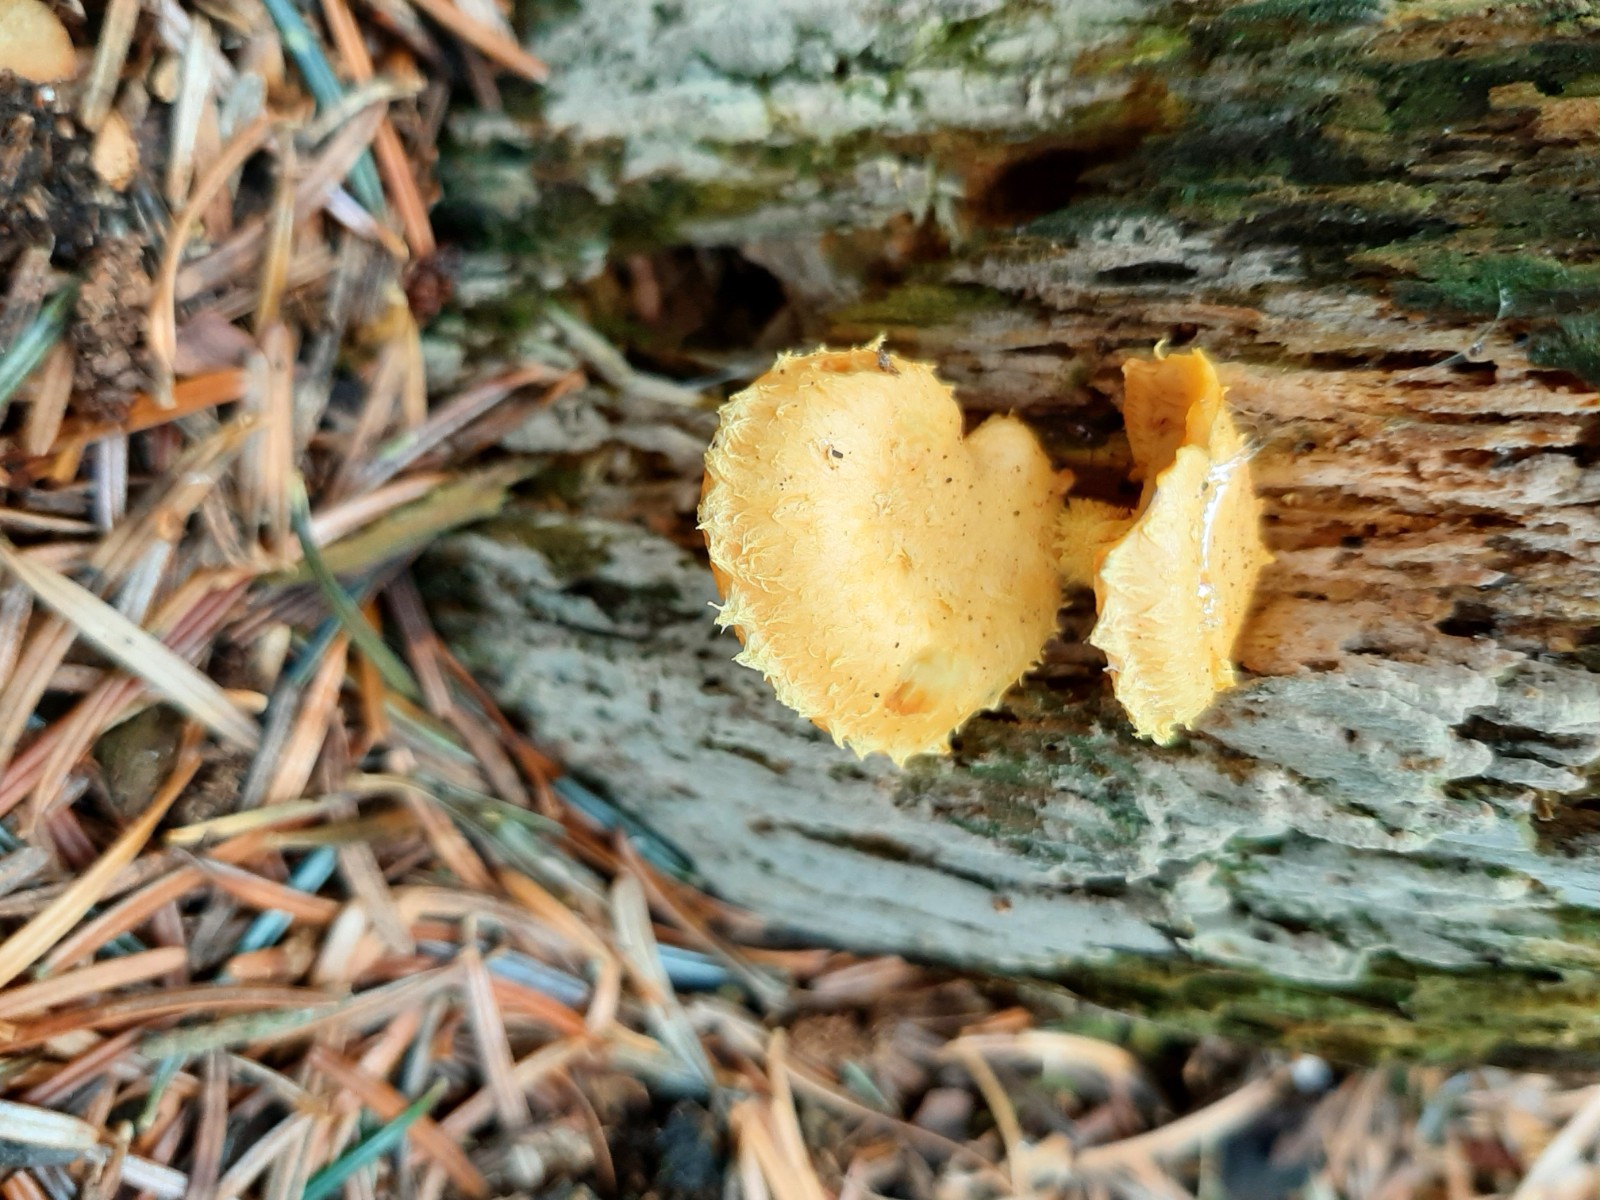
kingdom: Fungi
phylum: Basidiomycota
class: Agaricomycetes
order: Agaricales
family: Strophariaceae
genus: Pholiota
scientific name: Pholiota flammans
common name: flamme-skælhat
